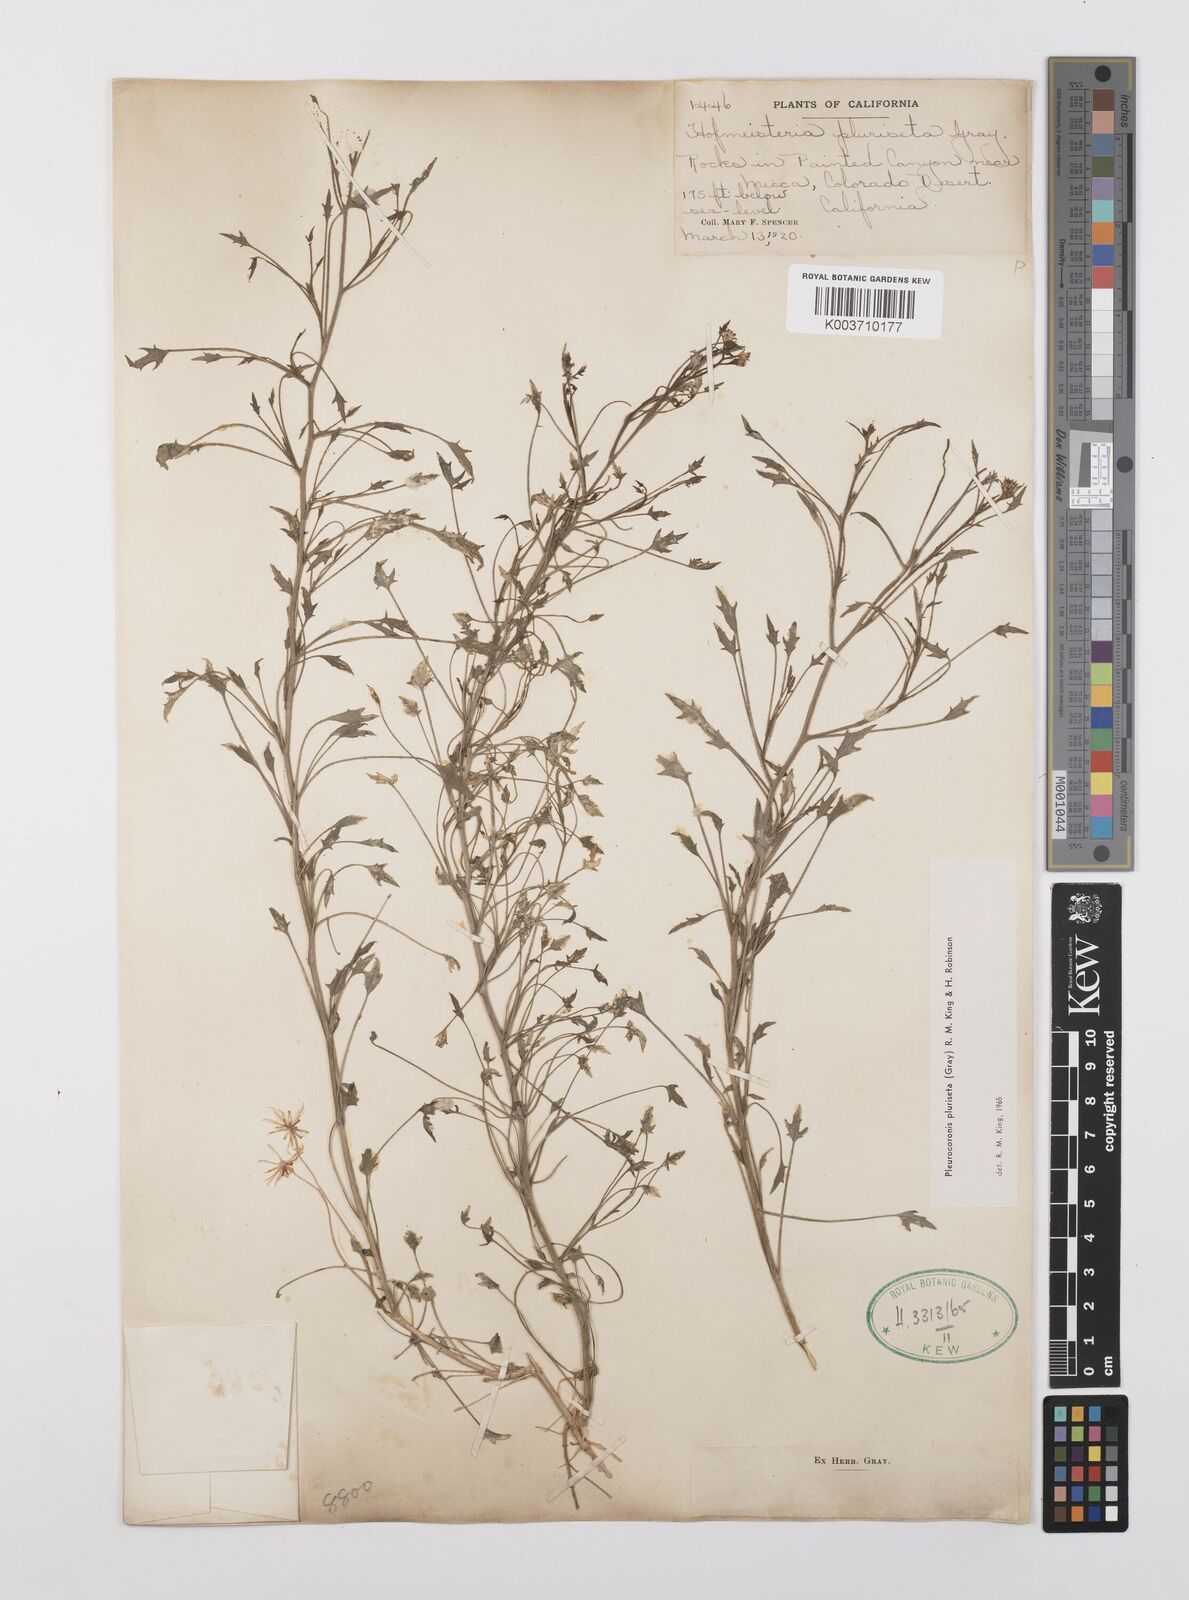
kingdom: Plantae
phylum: Tracheophyta
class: Magnoliopsida
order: Asterales
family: Asteraceae
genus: Pleurocoronis
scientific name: Pleurocoronis pluriseta
